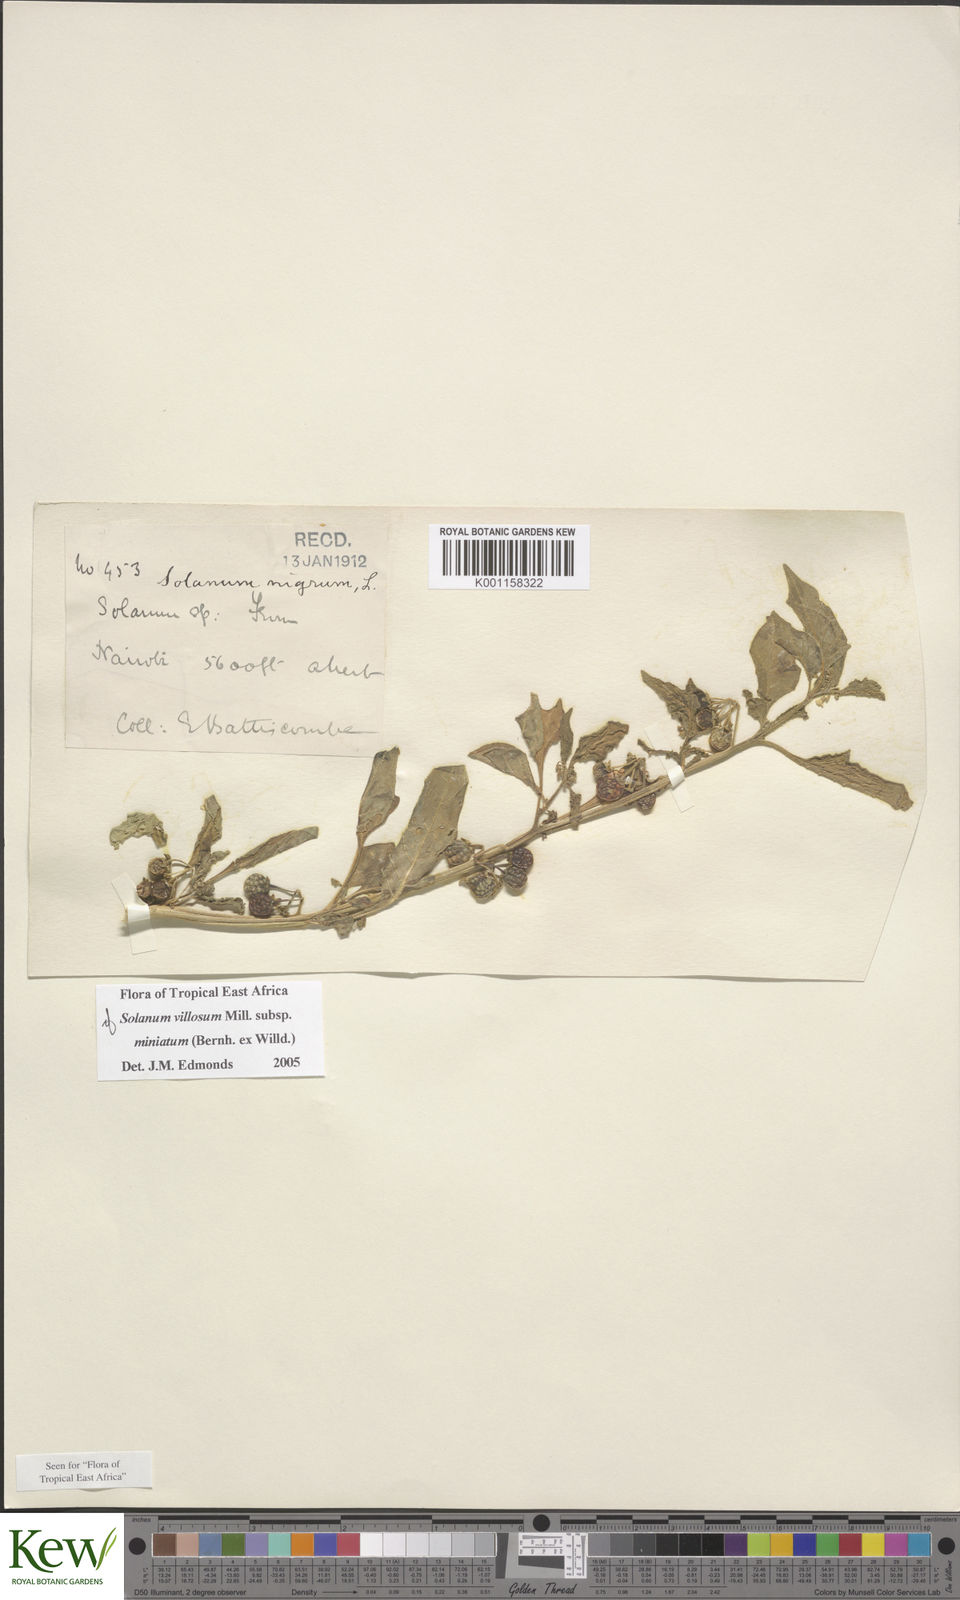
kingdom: Plantae
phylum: Tracheophyta
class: Magnoliopsida
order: Solanales
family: Solanaceae
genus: Solanum
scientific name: Solanum villosum
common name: Red nightshade
